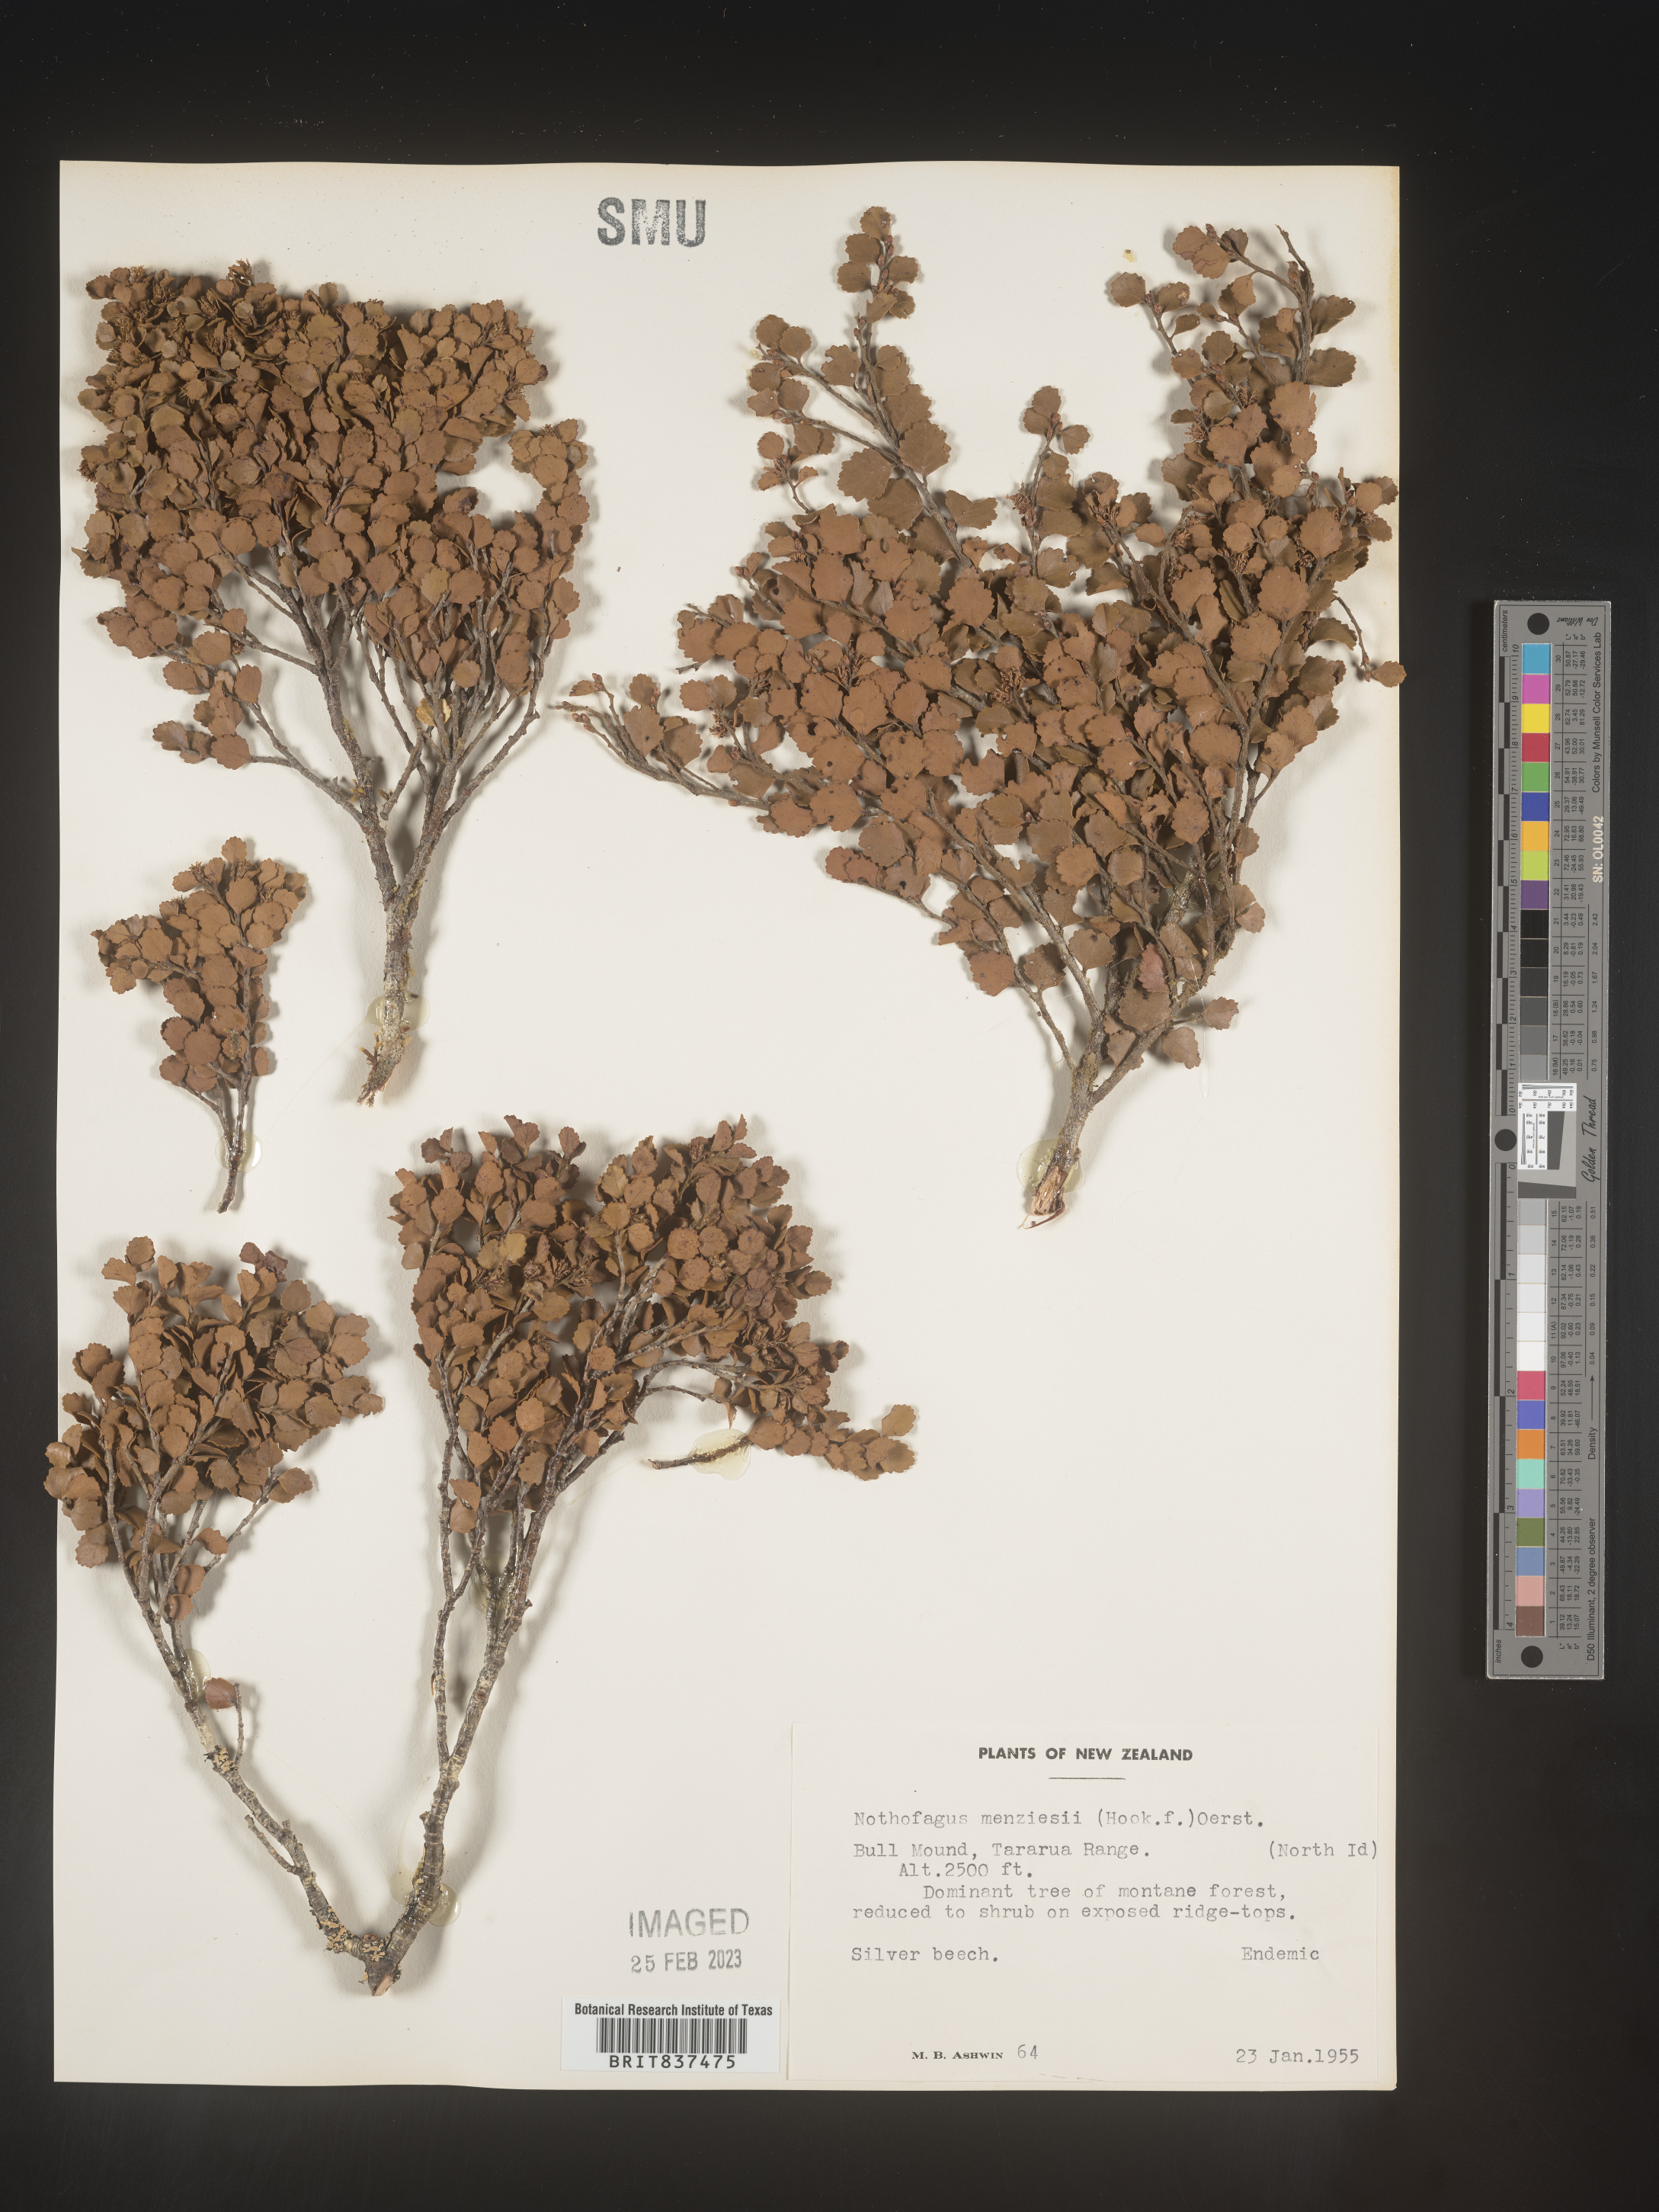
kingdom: Plantae
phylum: Tracheophyta
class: Magnoliopsida
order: Fagales
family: Nothofagaceae
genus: Nothofagus
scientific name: Nothofagus
